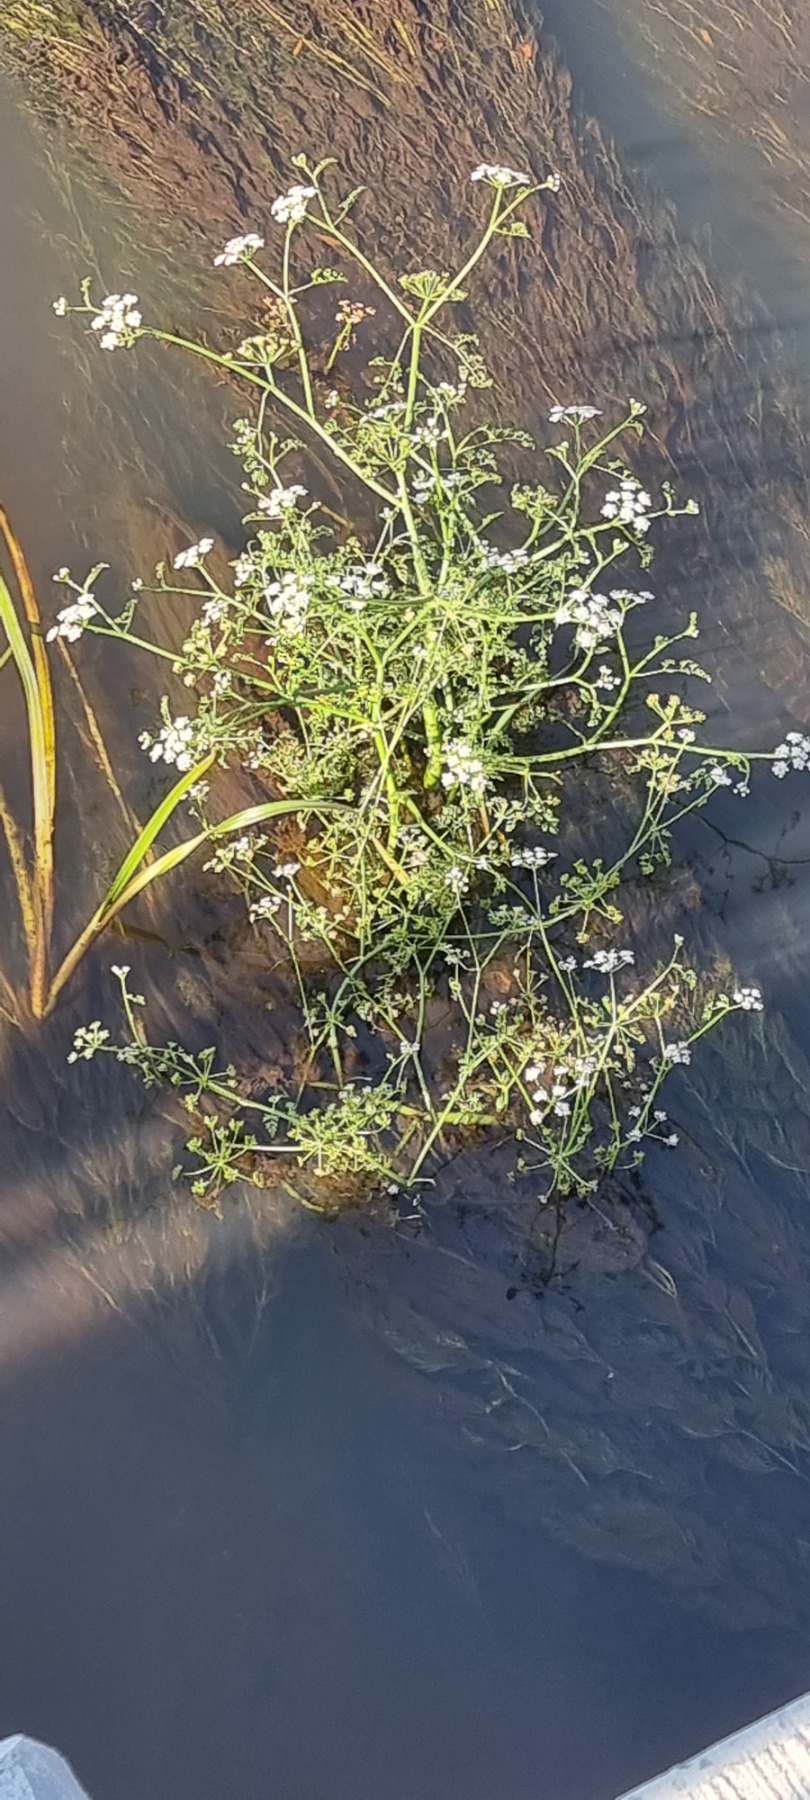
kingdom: Plantae
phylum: Tracheophyta
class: Magnoliopsida
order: Apiales
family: Apiaceae
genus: Oenanthe
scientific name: Oenanthe fluviatilis
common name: Flod-klaseskærm
